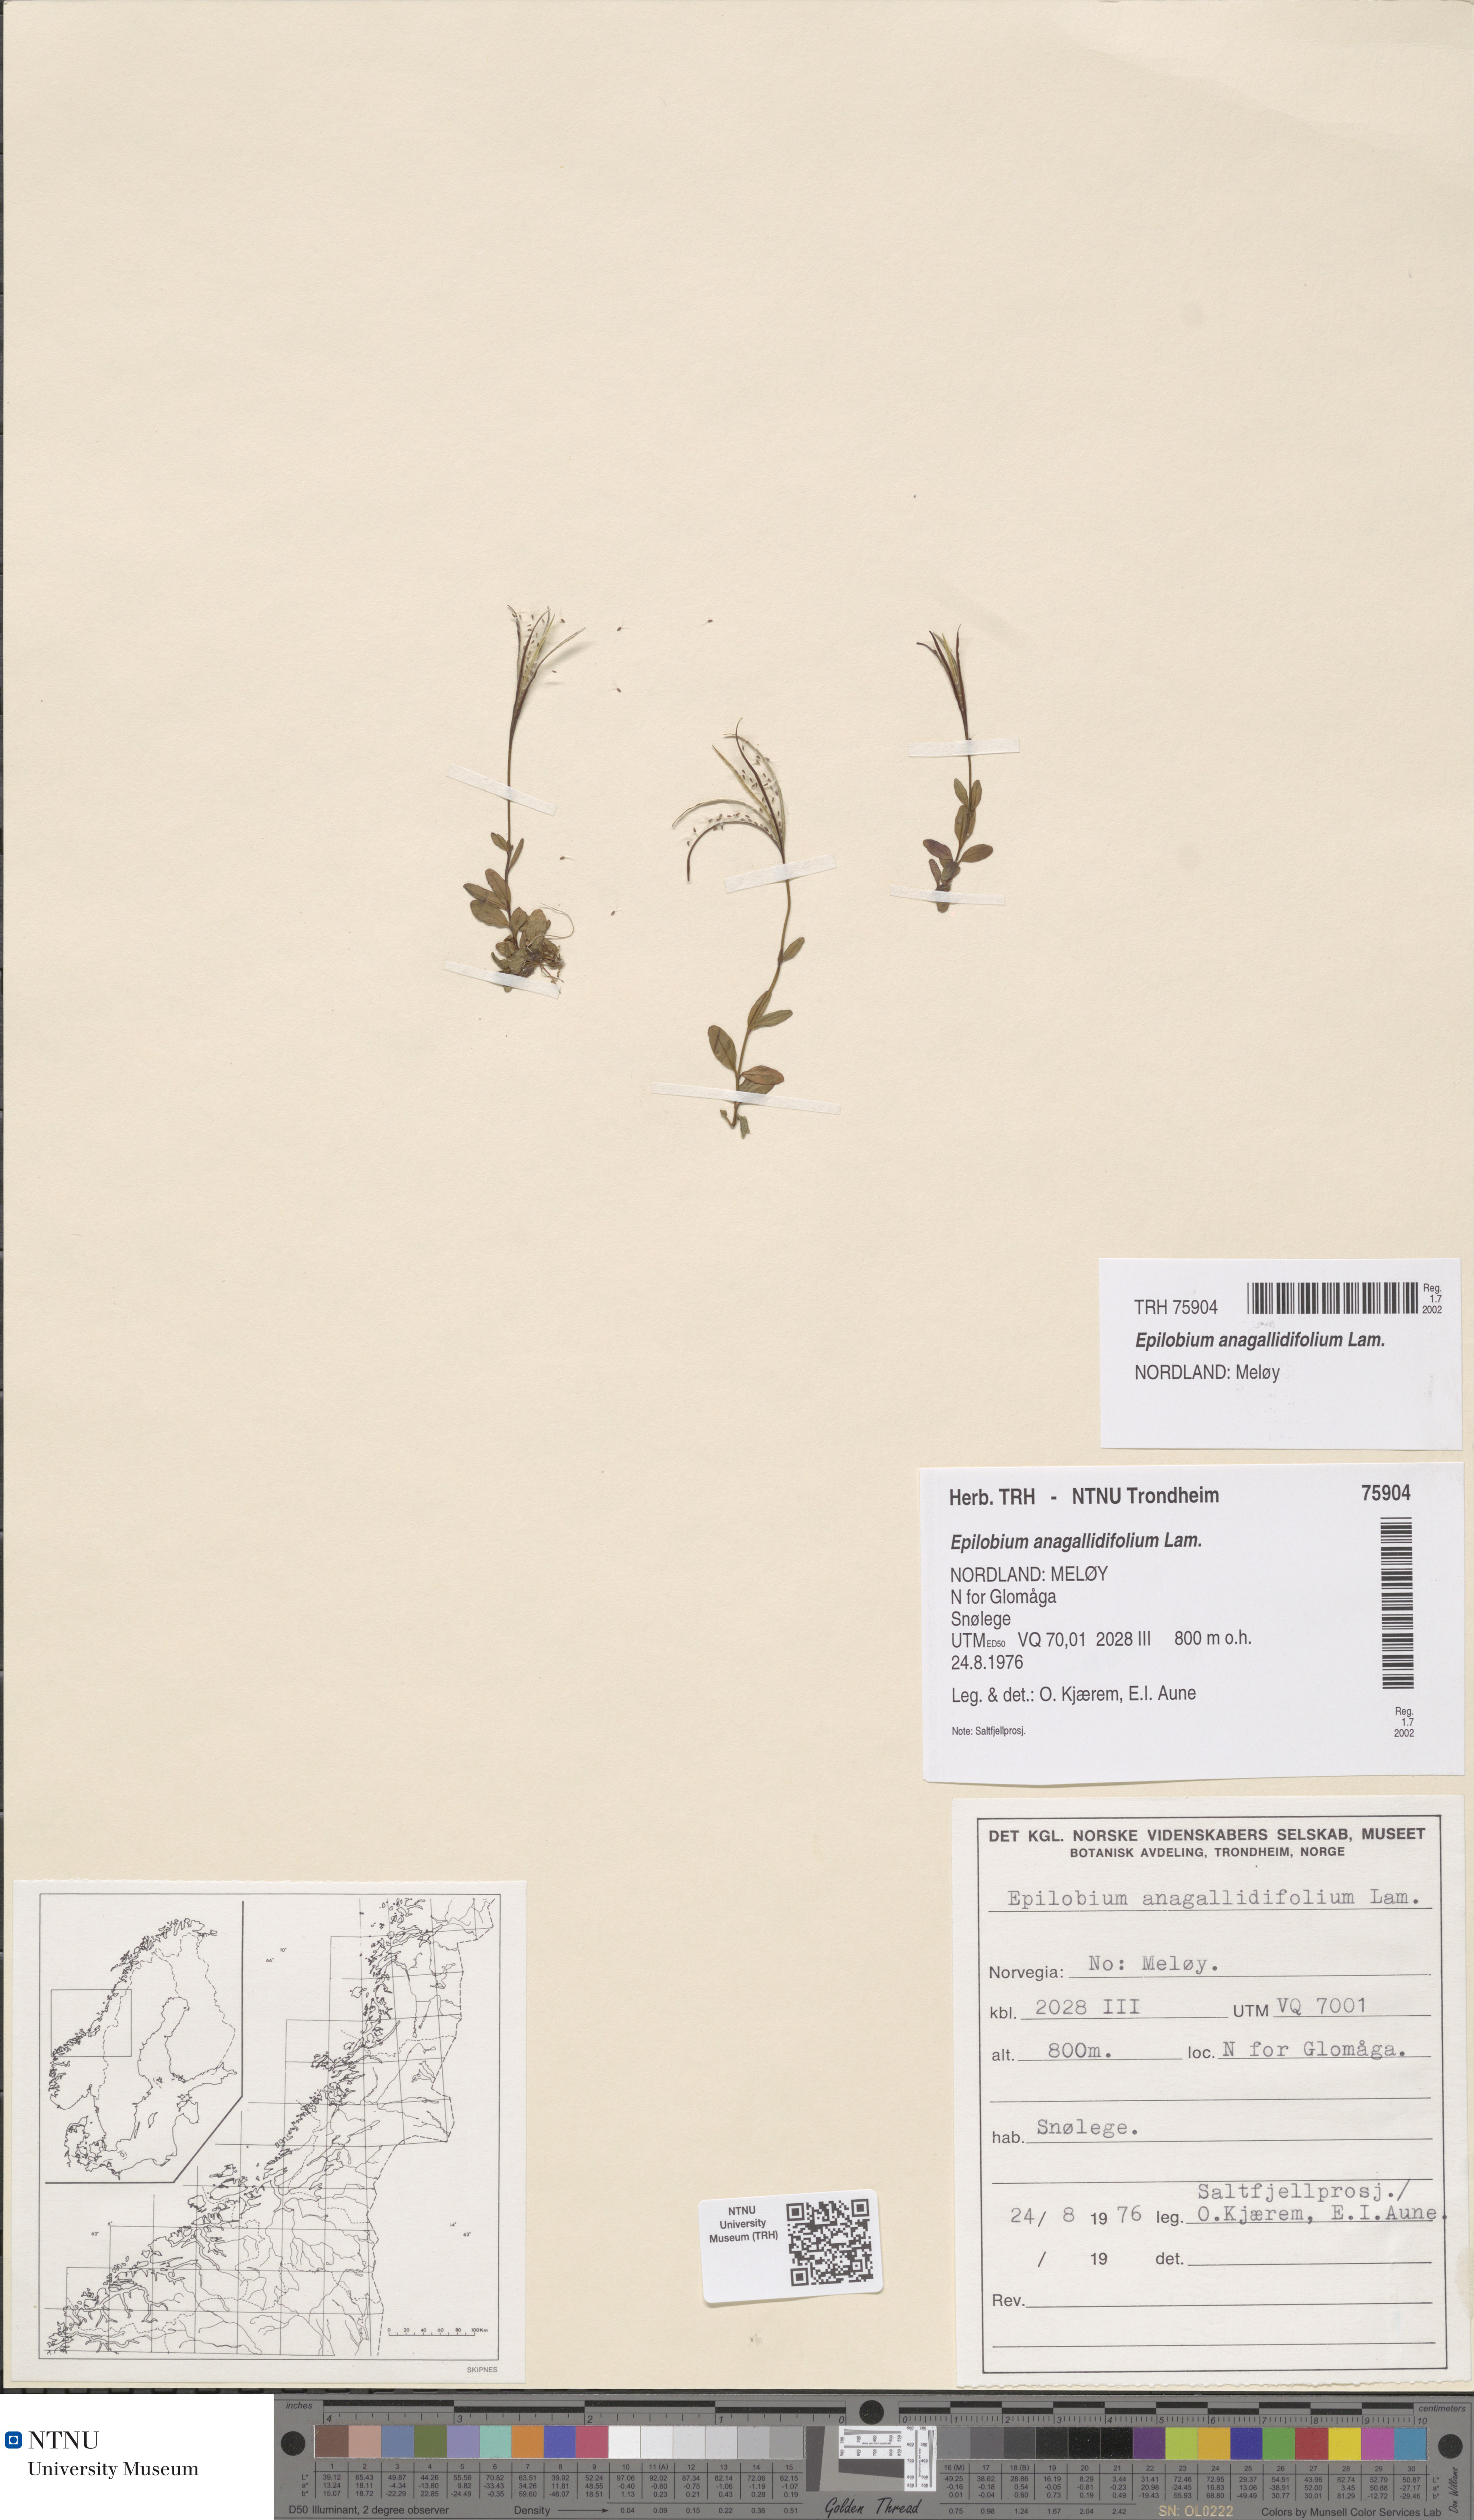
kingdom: Plantae
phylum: Tracheophyta
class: Magnoliopsida
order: Myrtales
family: Onagraceae
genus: Epilobium
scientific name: Epilobium anagallidifolium
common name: Alpine willowherb
